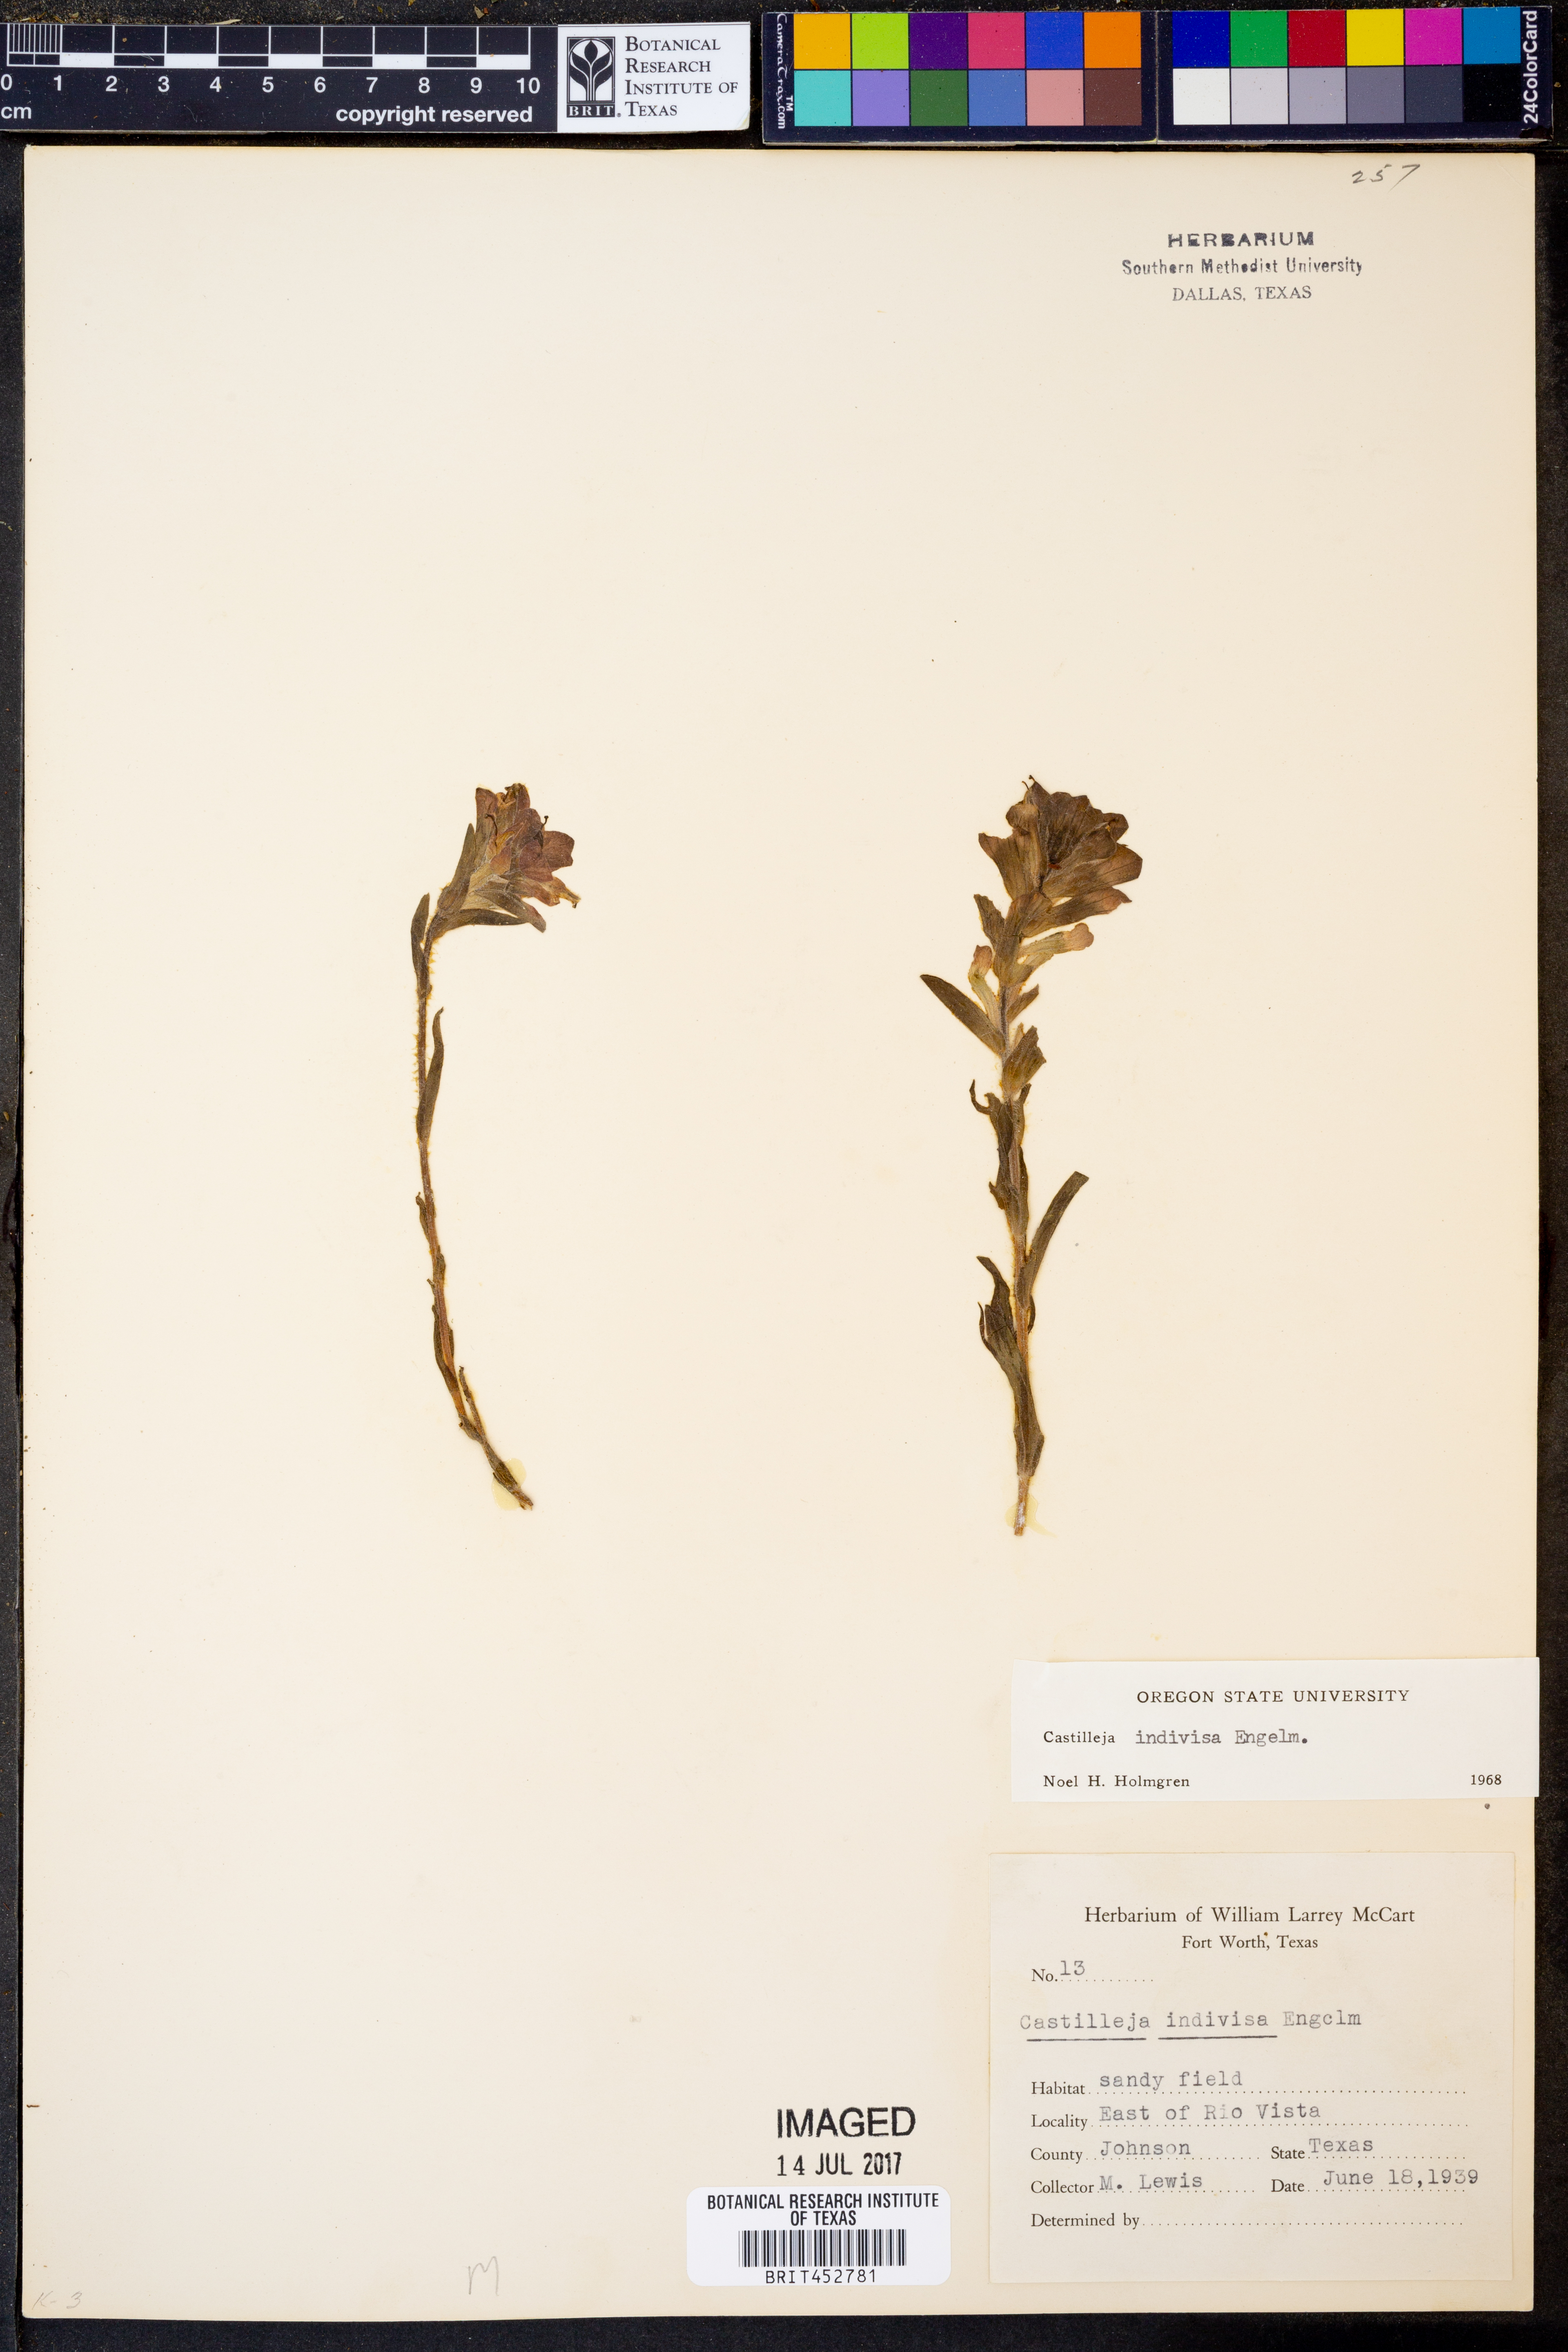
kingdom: Plantae
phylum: Tracheophyta
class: Magnoliopsida
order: Lamiales
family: Orobanchaceae
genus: Castilleja
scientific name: Castilleja indivisa
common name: Texas paintbrush
